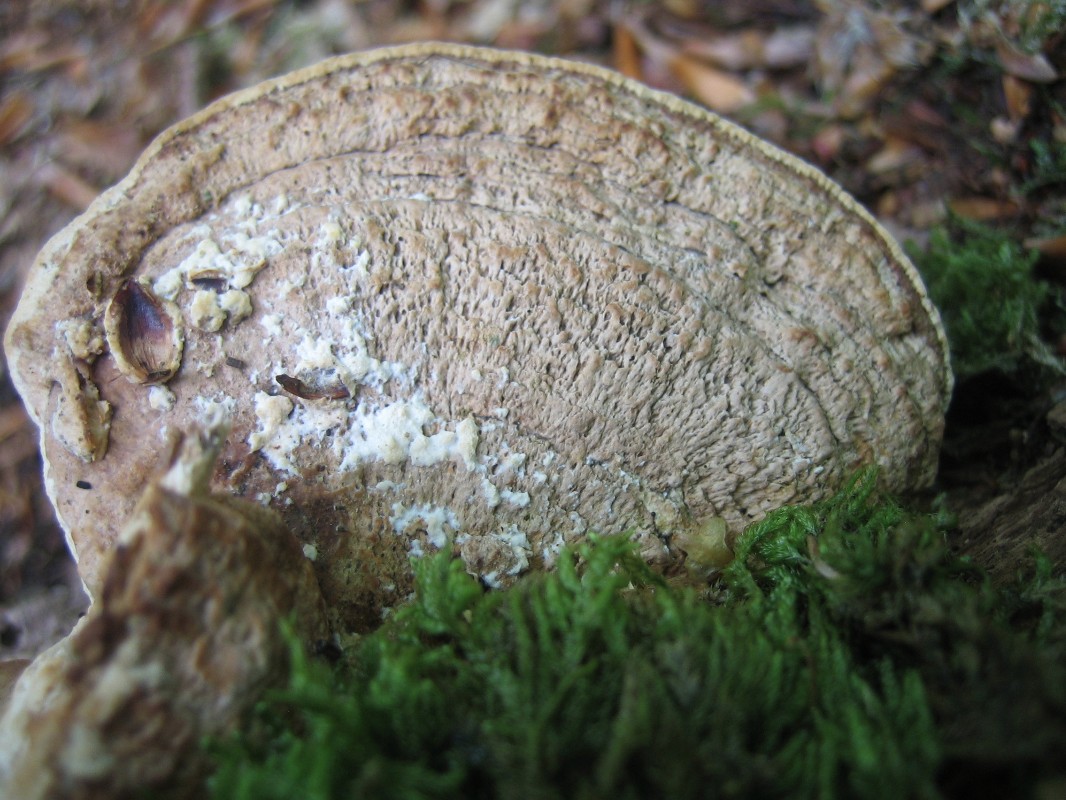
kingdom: Fungi
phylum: Basidiomycota
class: Agaricomycetes
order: Polyporales
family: Fomitopsidaceae
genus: Daedalea
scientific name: Daedalea quercina
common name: ege-labyrintsvamp
